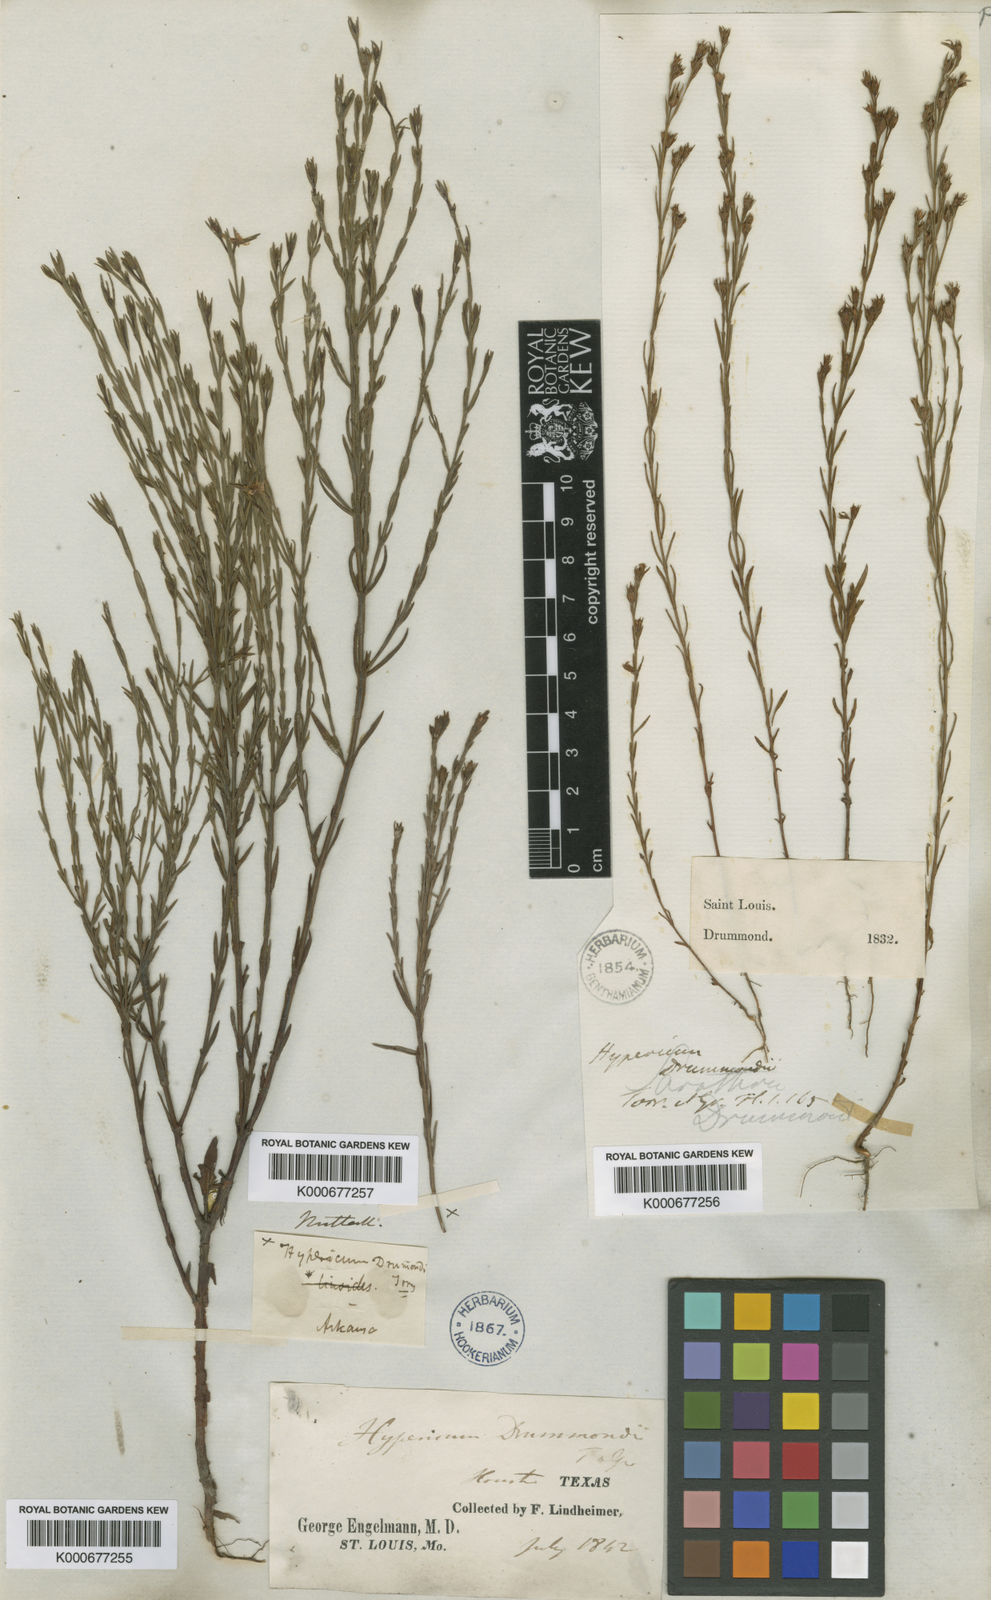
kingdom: Plantae
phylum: Tracheophyta
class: Magnoliopsida
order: Malpighiales
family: Hypericaceae
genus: Hypericum
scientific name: Hypericum drummondii
